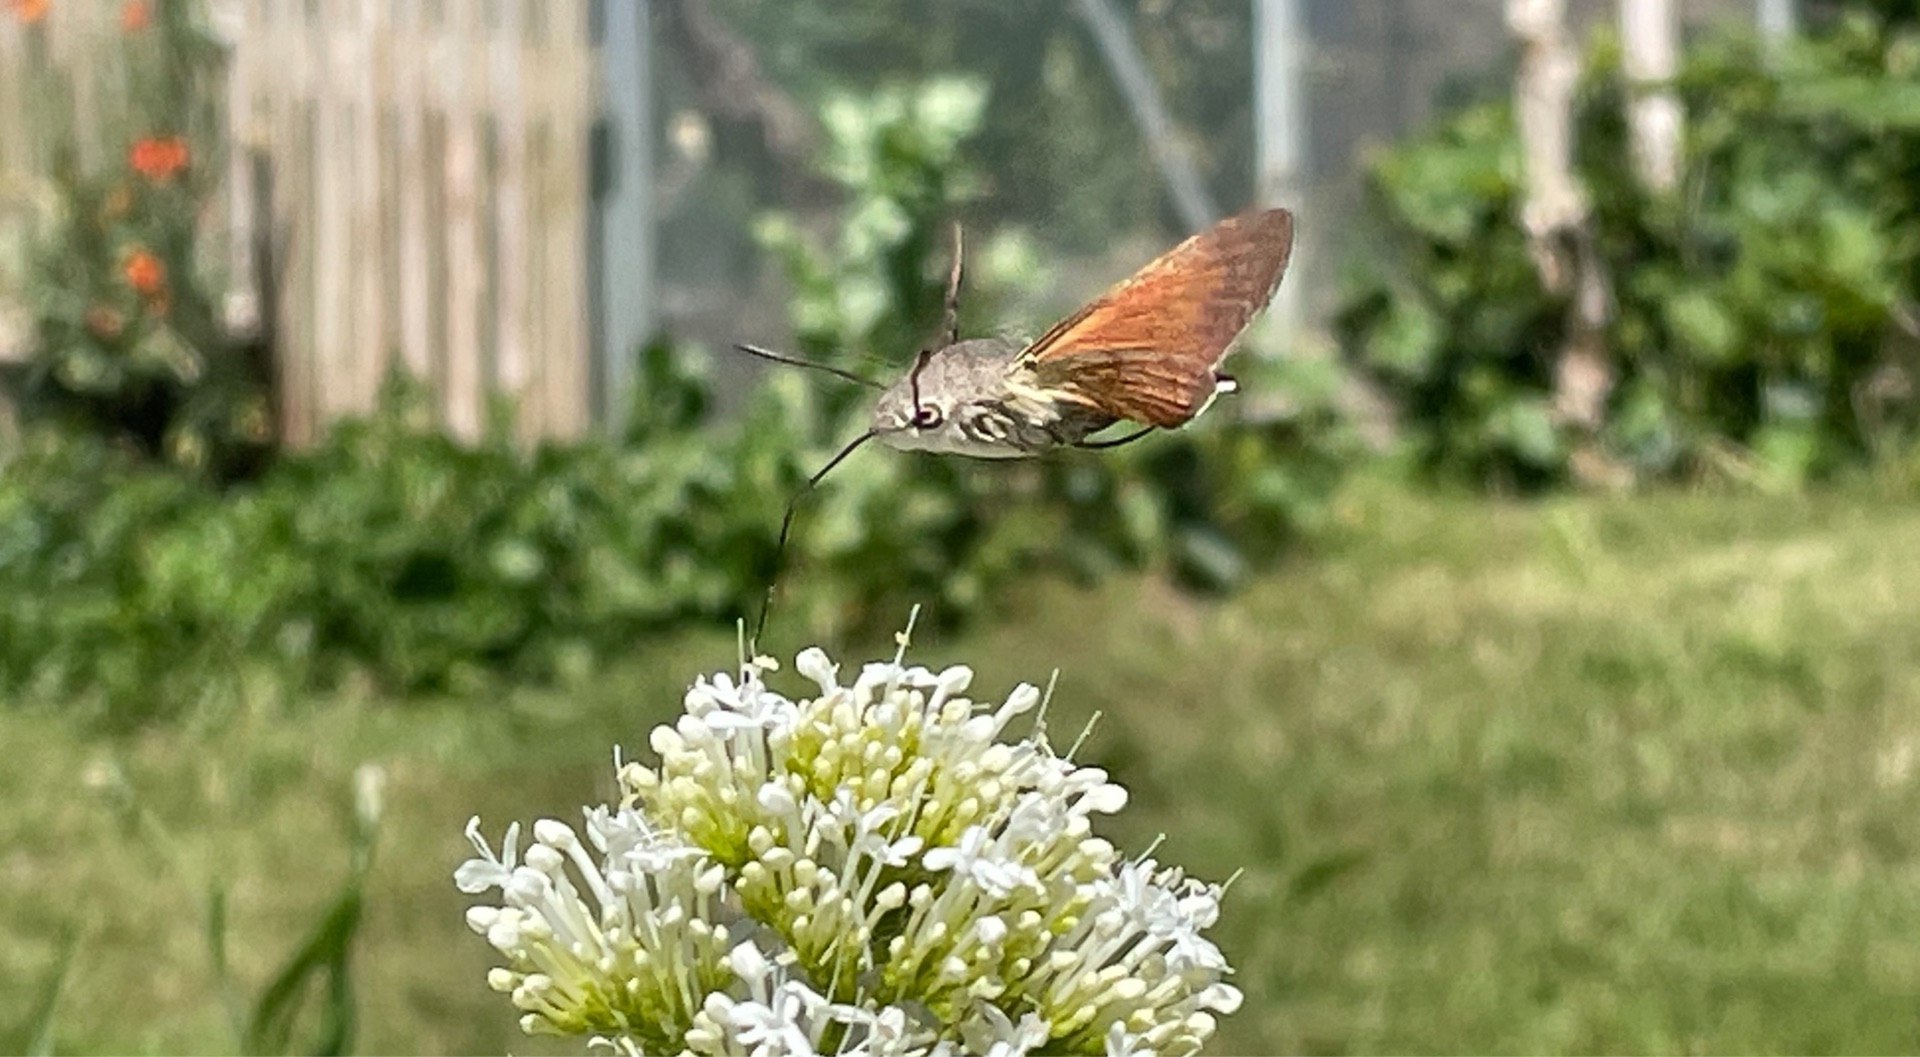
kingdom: Animalia
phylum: Arthropoda
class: Insecta
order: Lepidoptera
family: Sphingidae
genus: Macroglossum
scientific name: Macroglossum stellatarum
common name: Duehale
